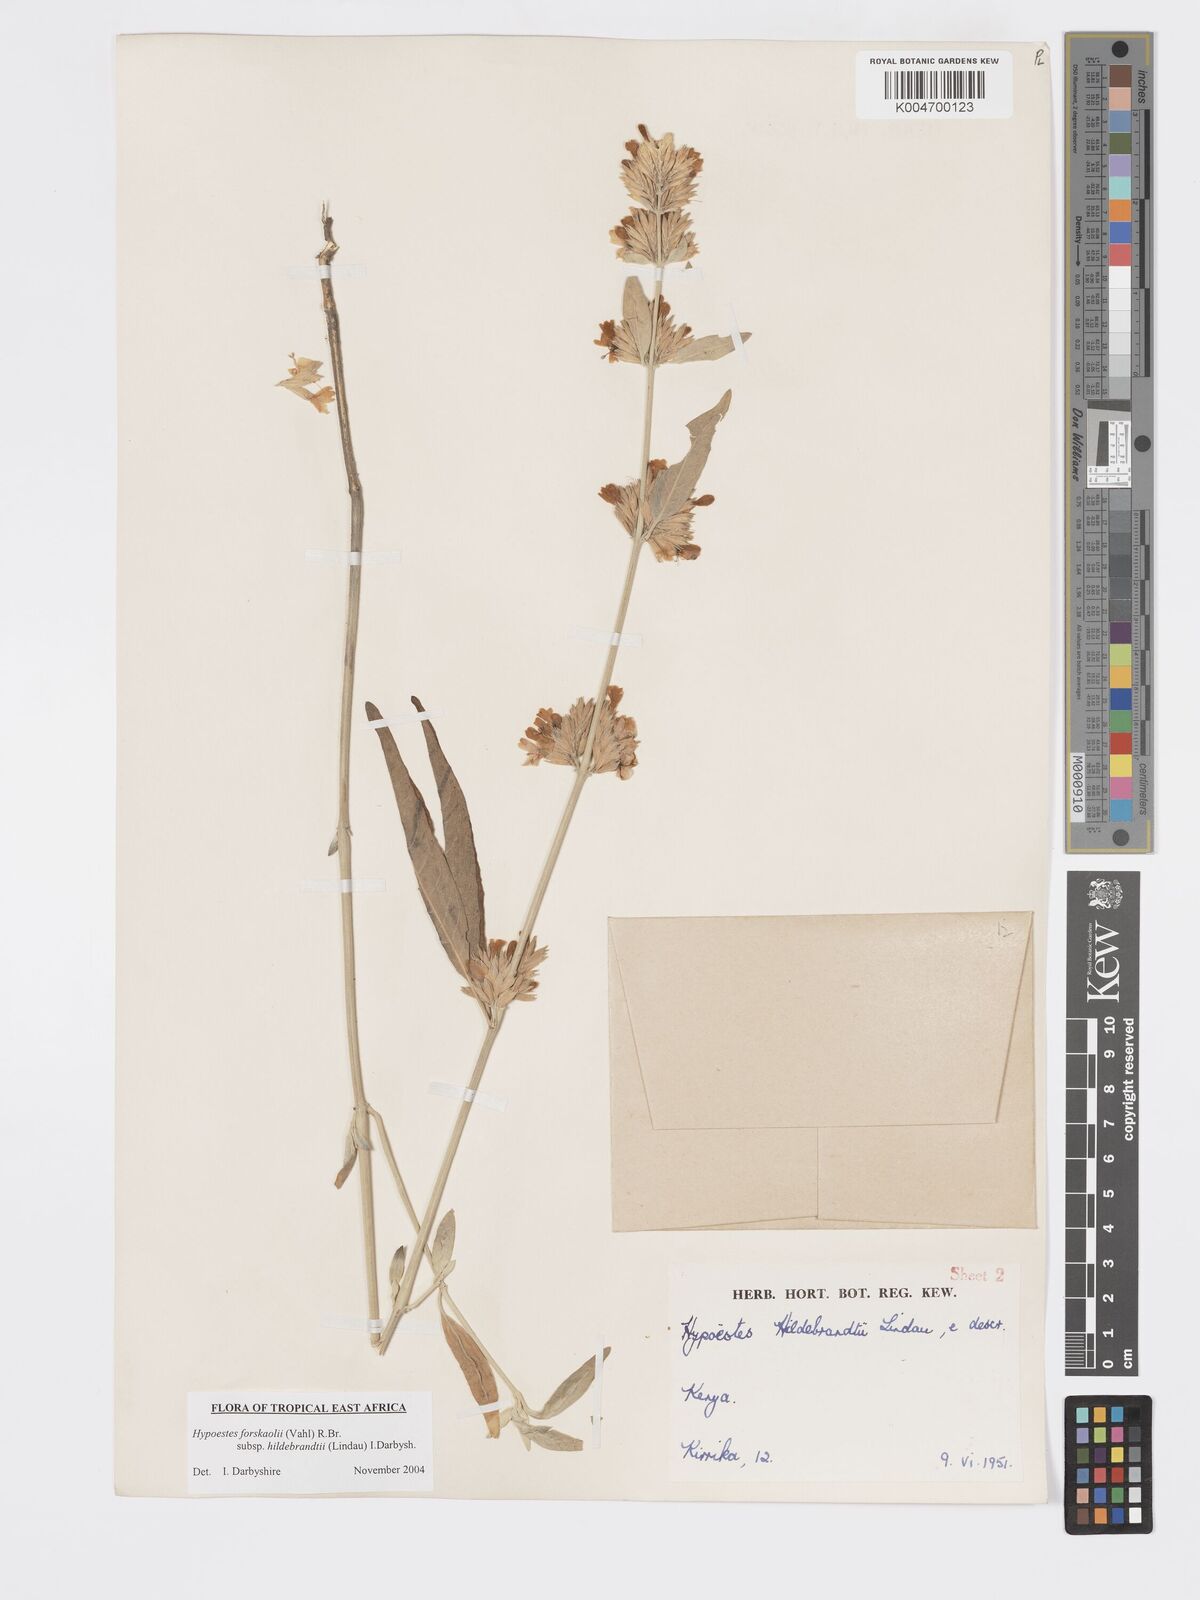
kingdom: Plantae
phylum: Tracheophyta
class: Magnoliopsida
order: Lamiales
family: Acanthaceae
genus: Hypoestes
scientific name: Hypoestes forskaolii
